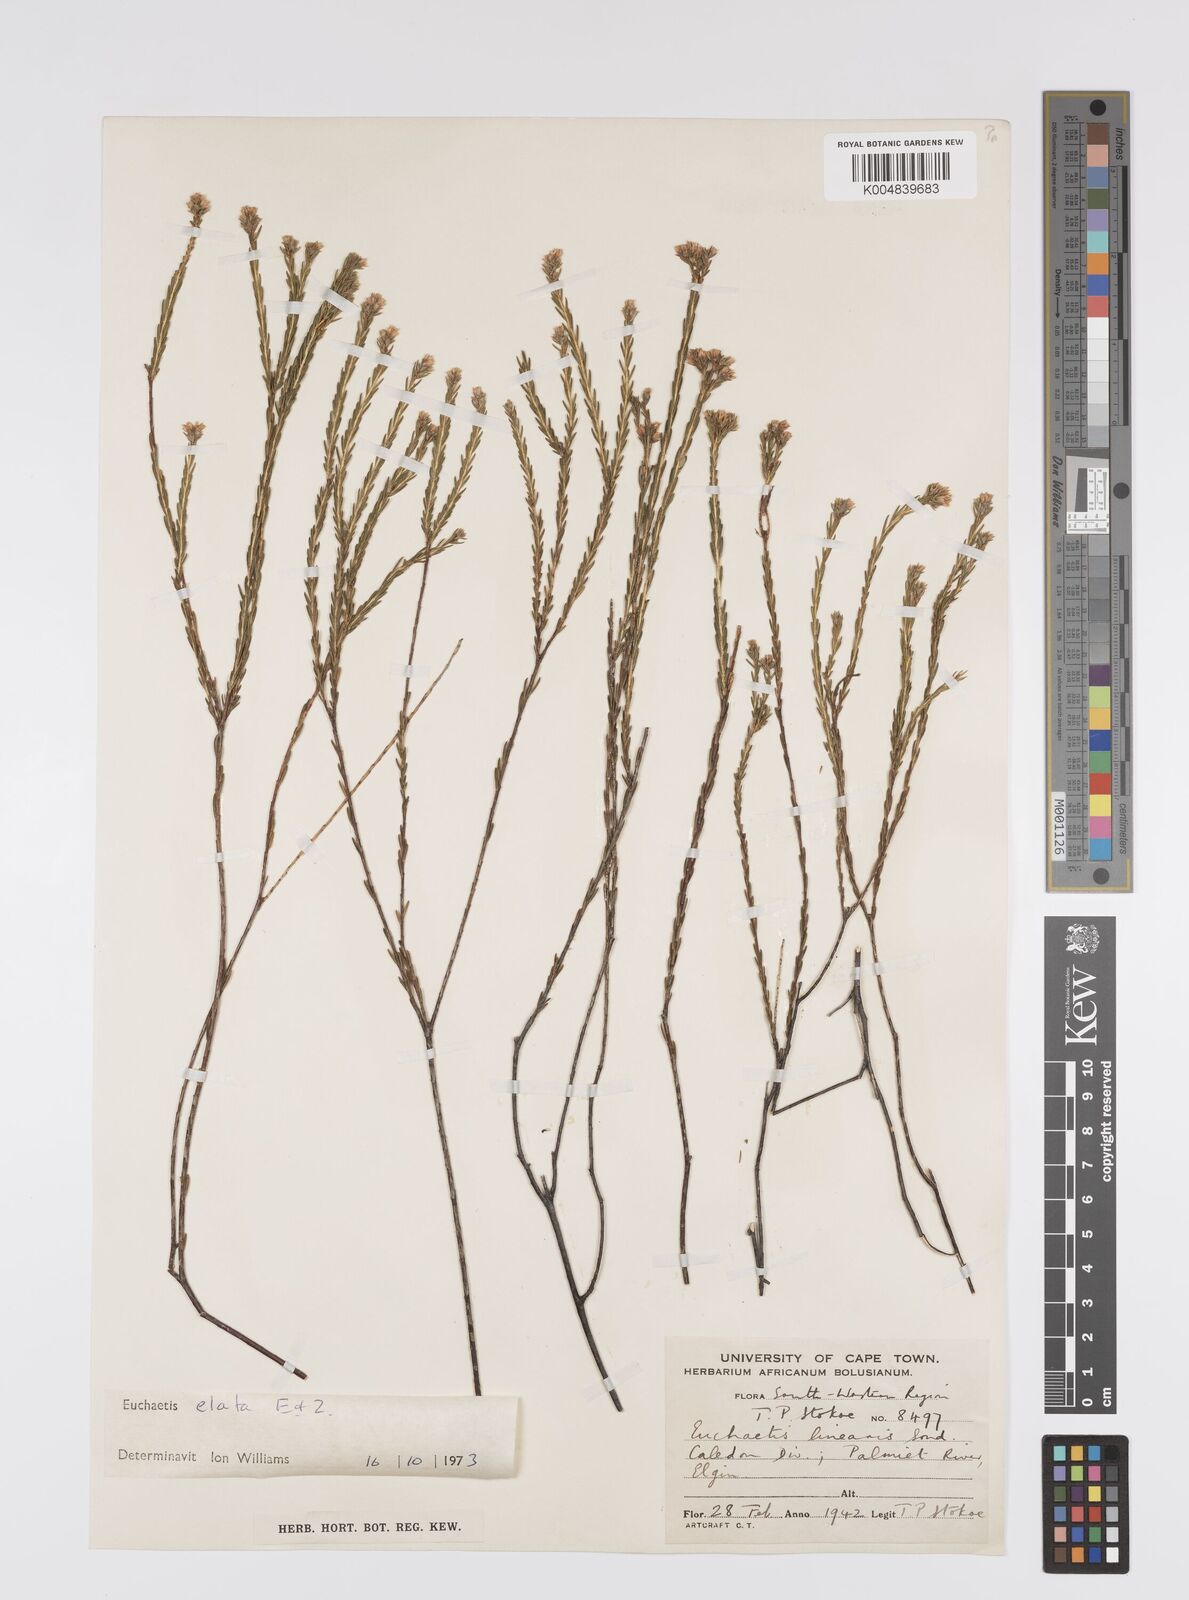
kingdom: Plantae
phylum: Tracheophyta
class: Magnoliopsida
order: Sapindales
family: Rutaceae
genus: Euchaetis
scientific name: Euchaetis elata
